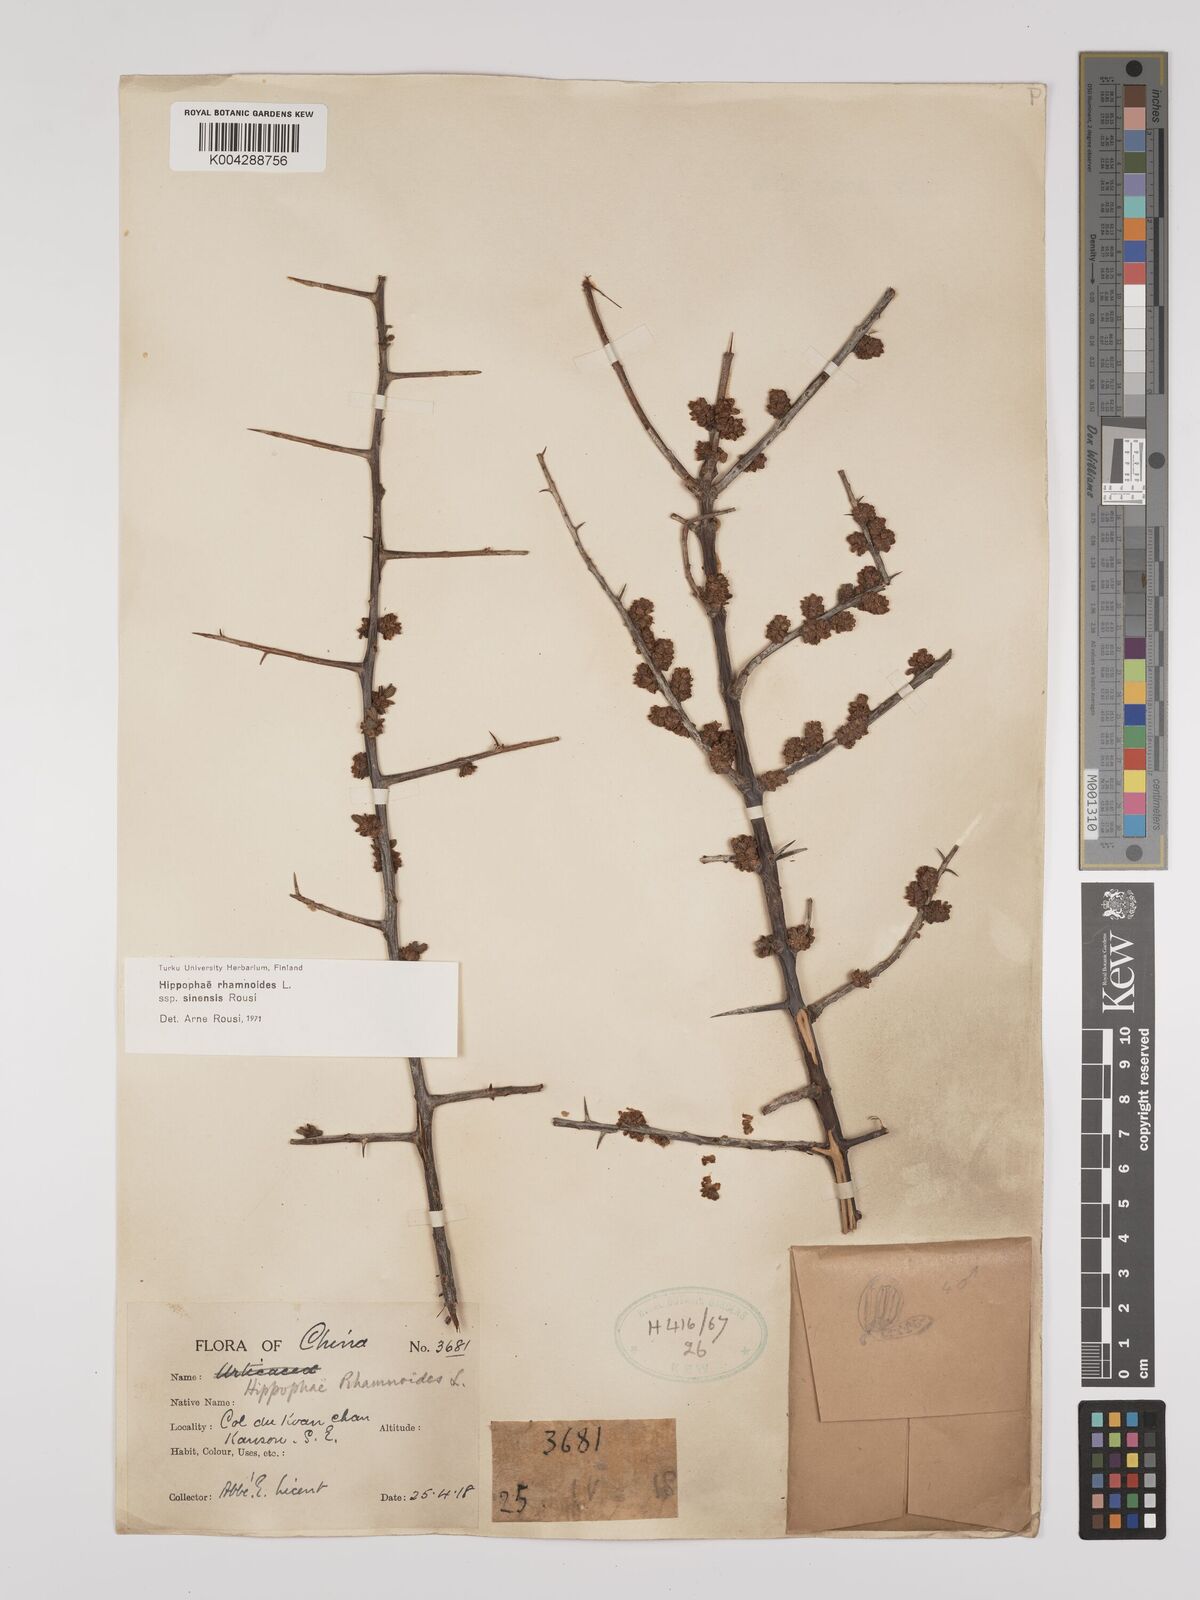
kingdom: Plantae
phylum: Tracheophyta
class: Magnoliopsida
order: Rosales
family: Elaeagnaceae
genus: Hippophae
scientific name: Hippophae rhamnoides
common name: Sea-buckthorn
